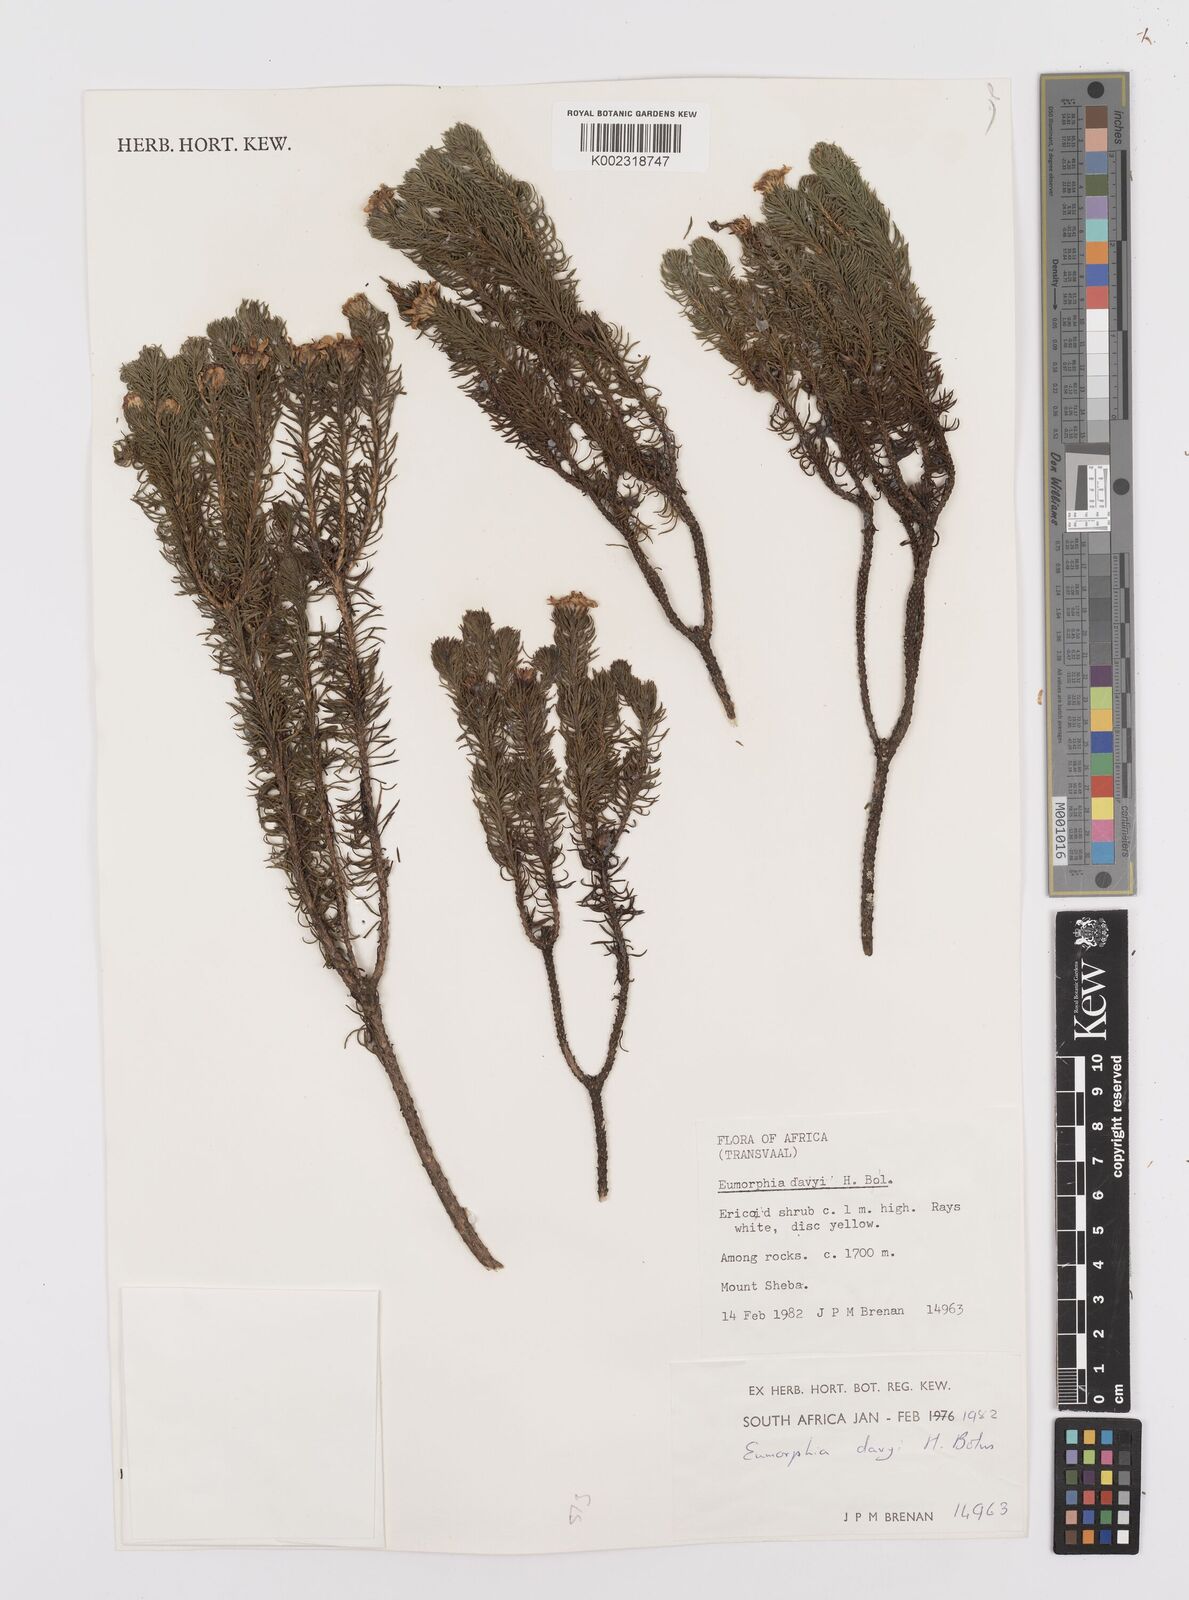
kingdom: Plantae
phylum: Tracheophyta
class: Magnoliopsida
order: Asterales
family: Asteraceae
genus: Eumorphia
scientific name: Eumorphia davyi
